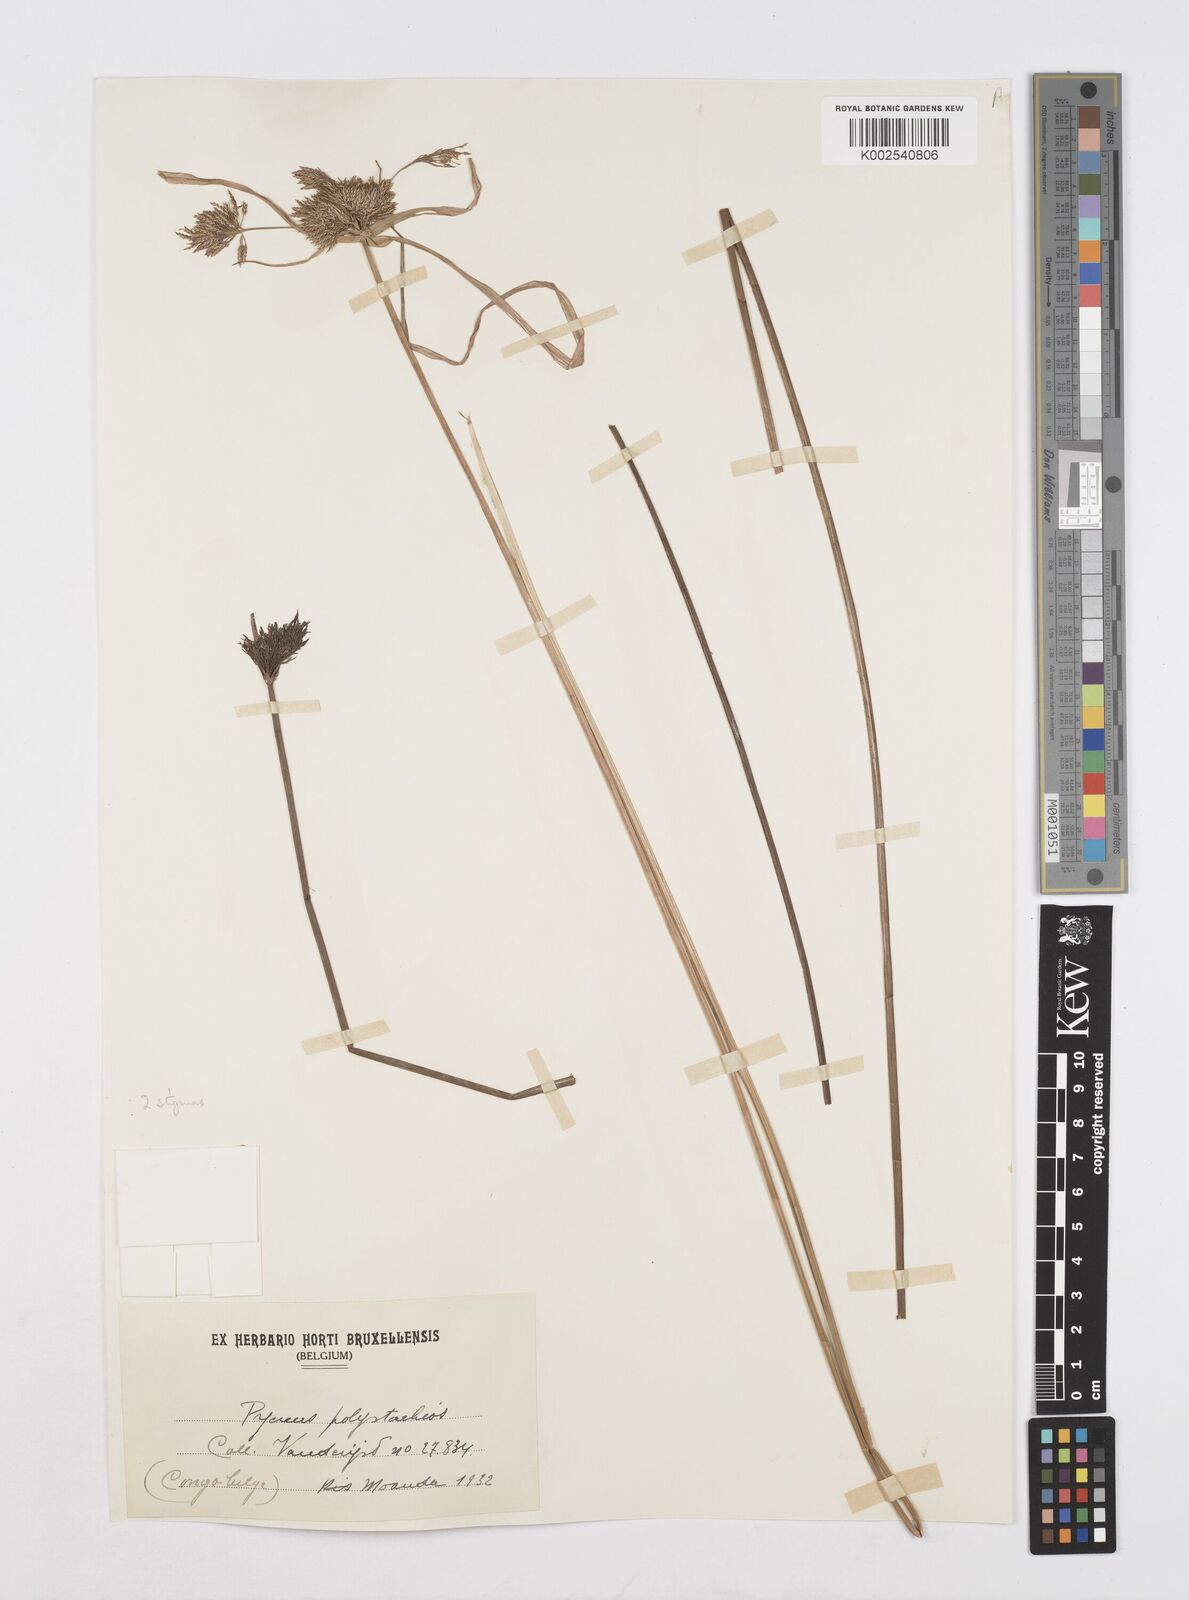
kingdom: Plantae
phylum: Tracheophyta
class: Liliopsida
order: Poales
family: Cyperaceae
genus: Cyperus
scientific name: Cyperus polystachyos
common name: Bunchy flat sedge
